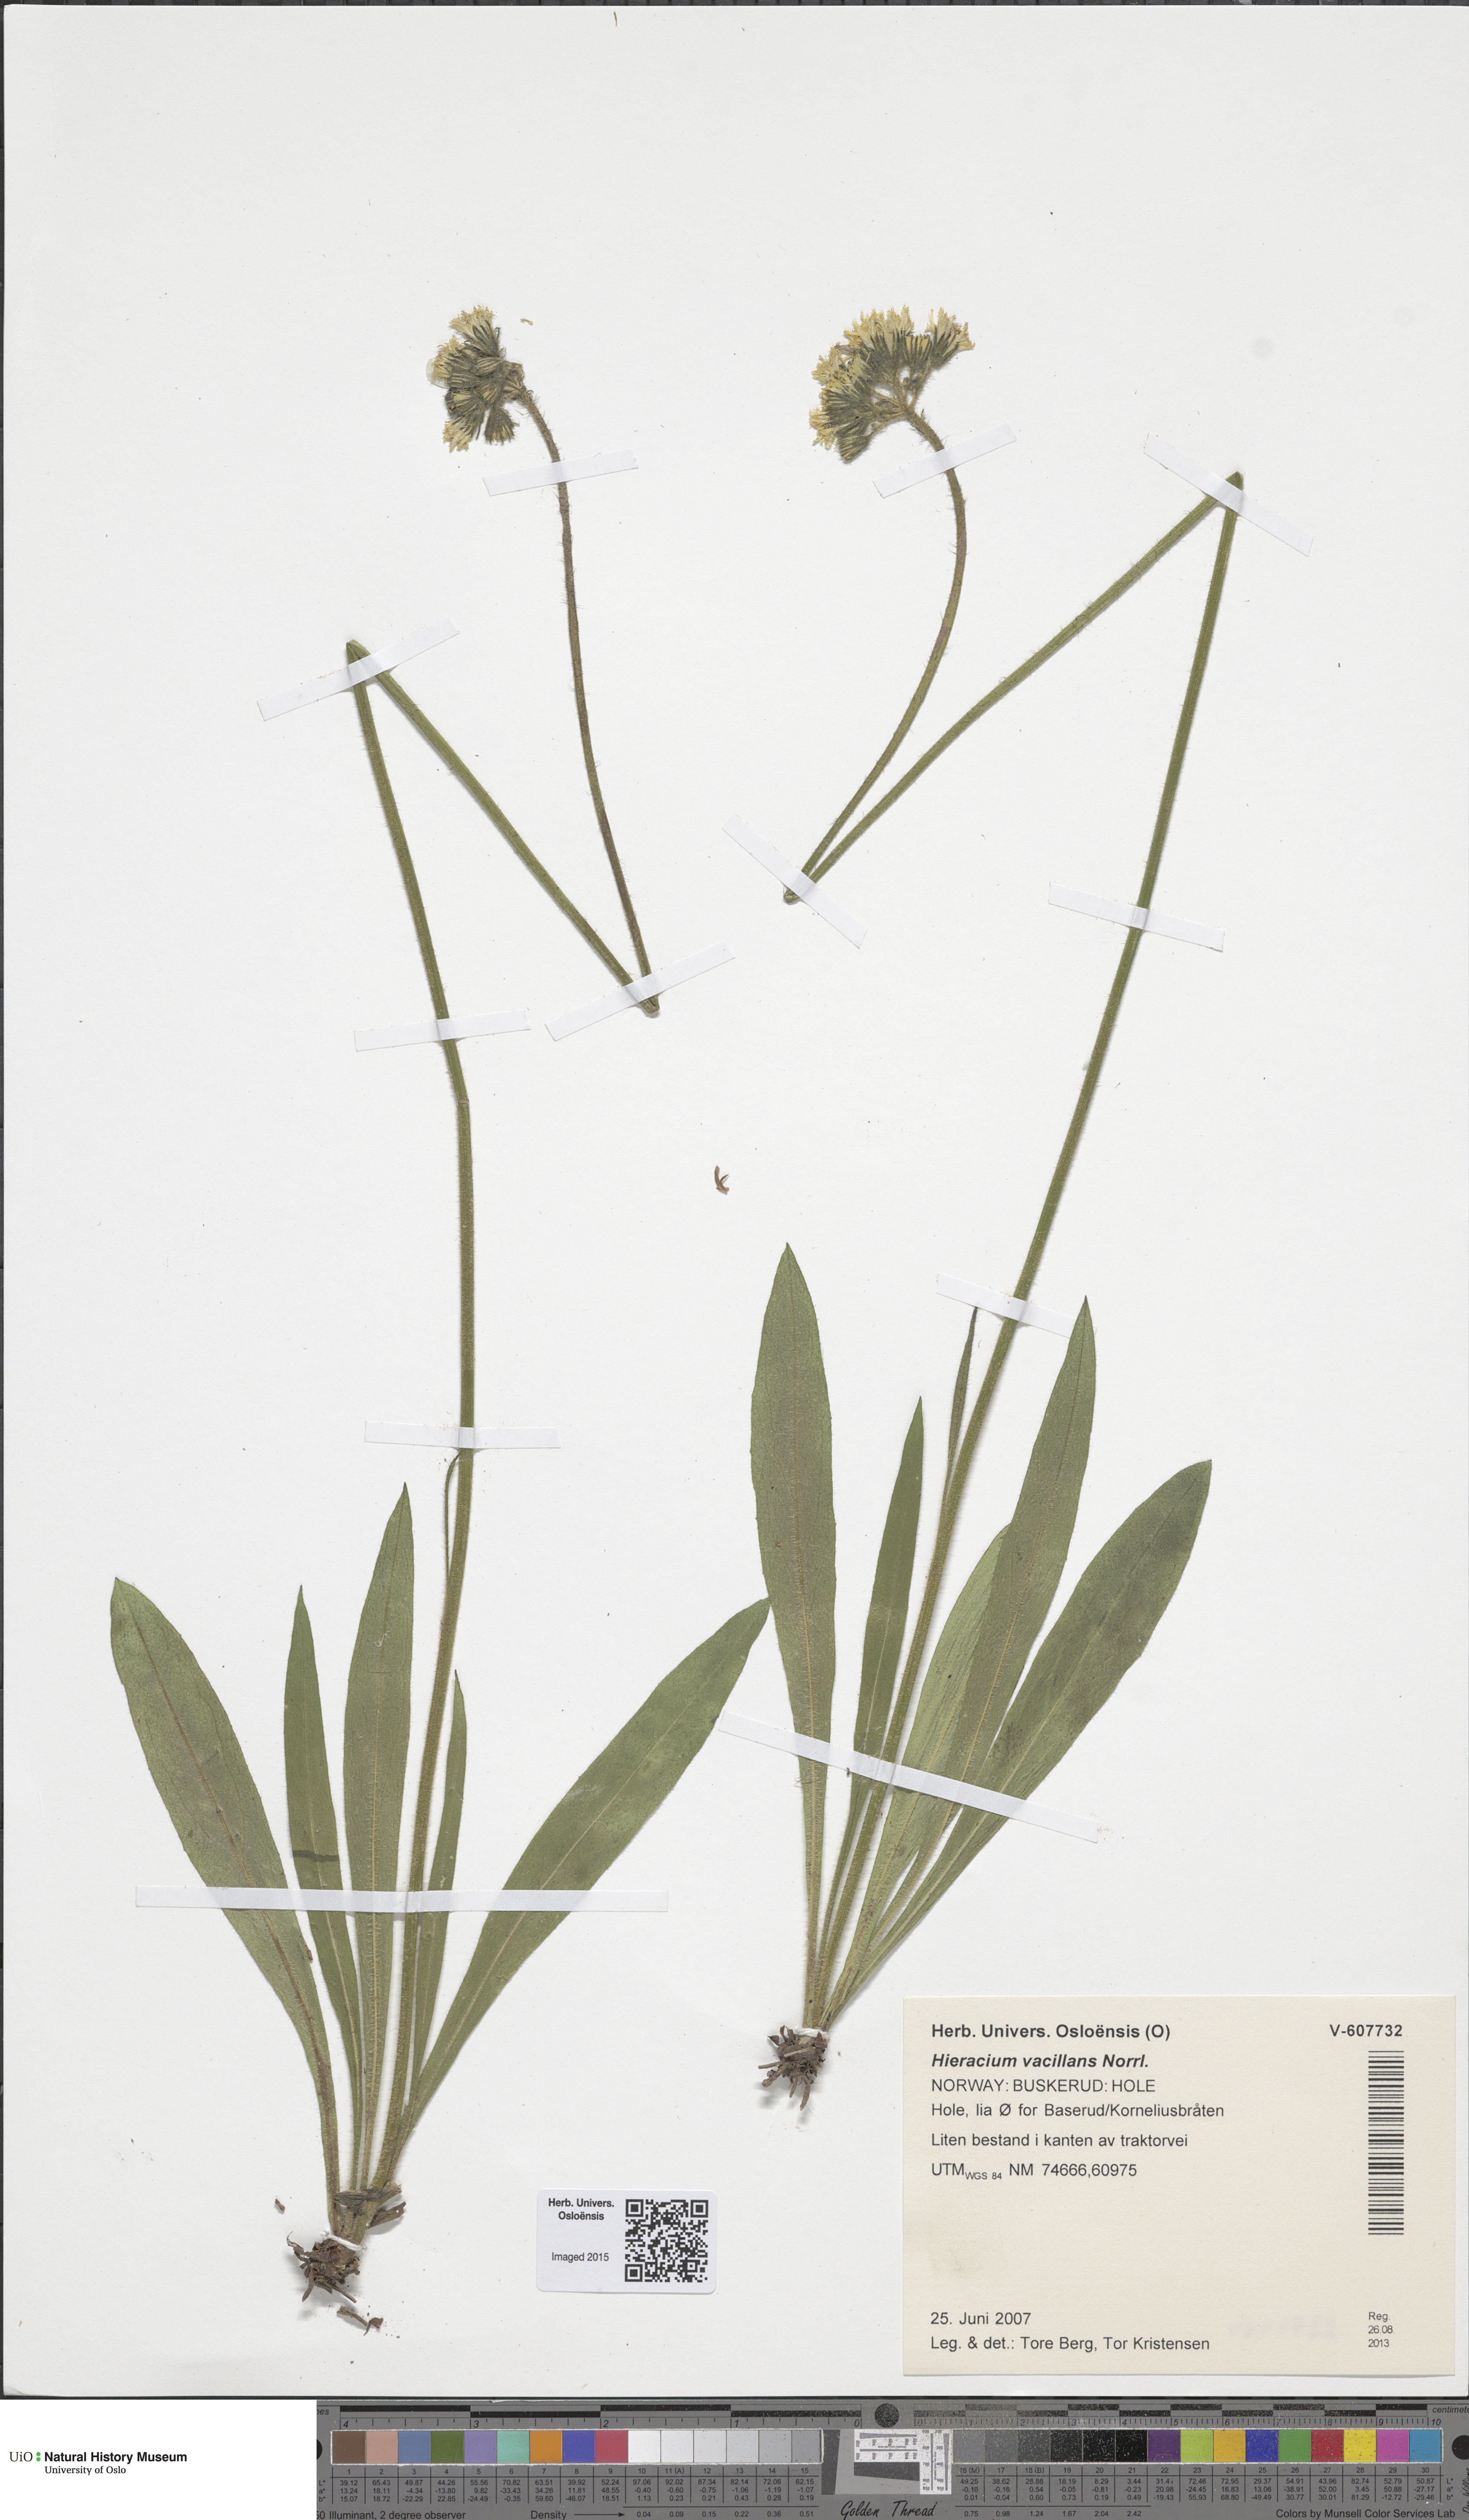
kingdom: Plantae
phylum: Tracheophyta
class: Magnoliopsida
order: Asterales
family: Asteraceae
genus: Pilosella
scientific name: Pilosella glomerata
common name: Queen devil hawkweed
